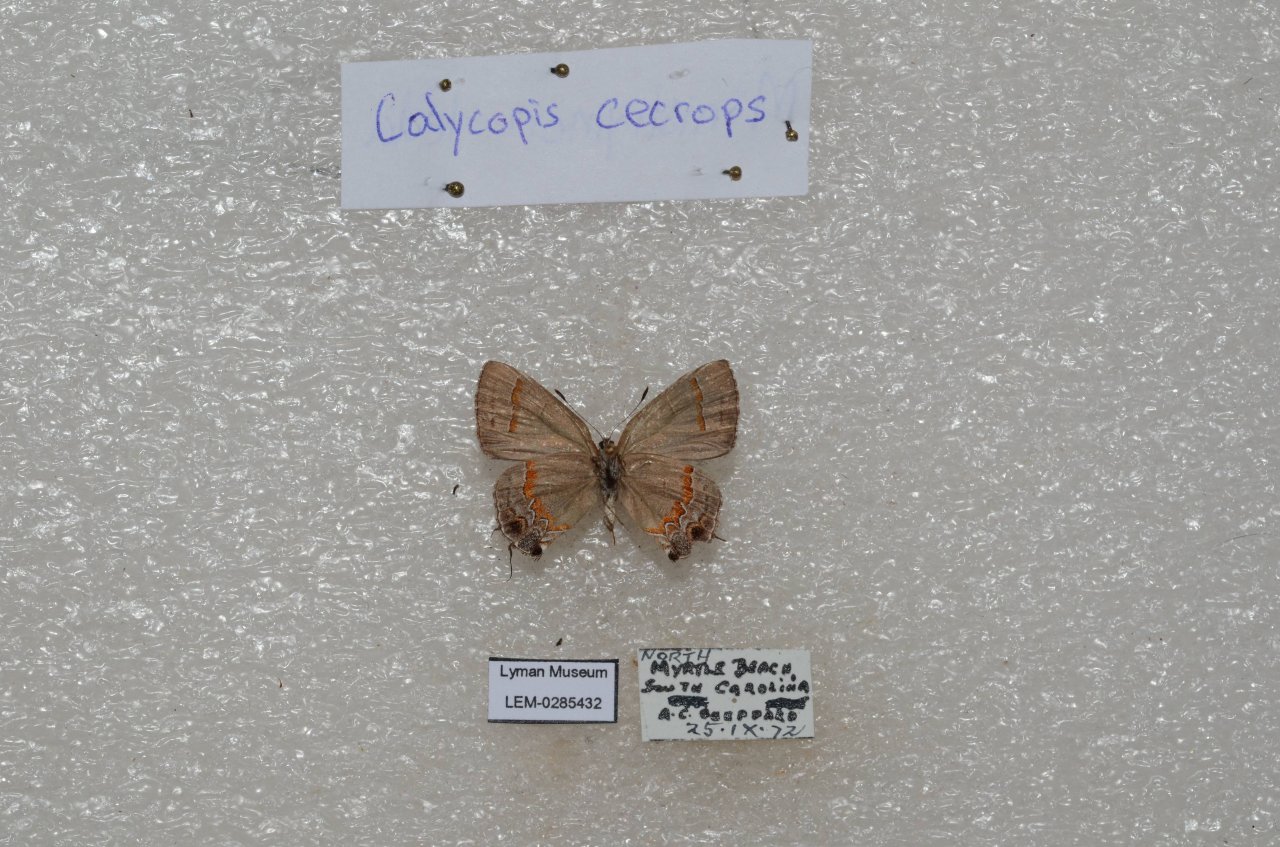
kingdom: Animalia
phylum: Arthropoda
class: Insecta
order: Lepidoptera
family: Lycaenidae
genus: Calycopis
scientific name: Calycopis cecrops
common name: Red-banded Hairstreak
